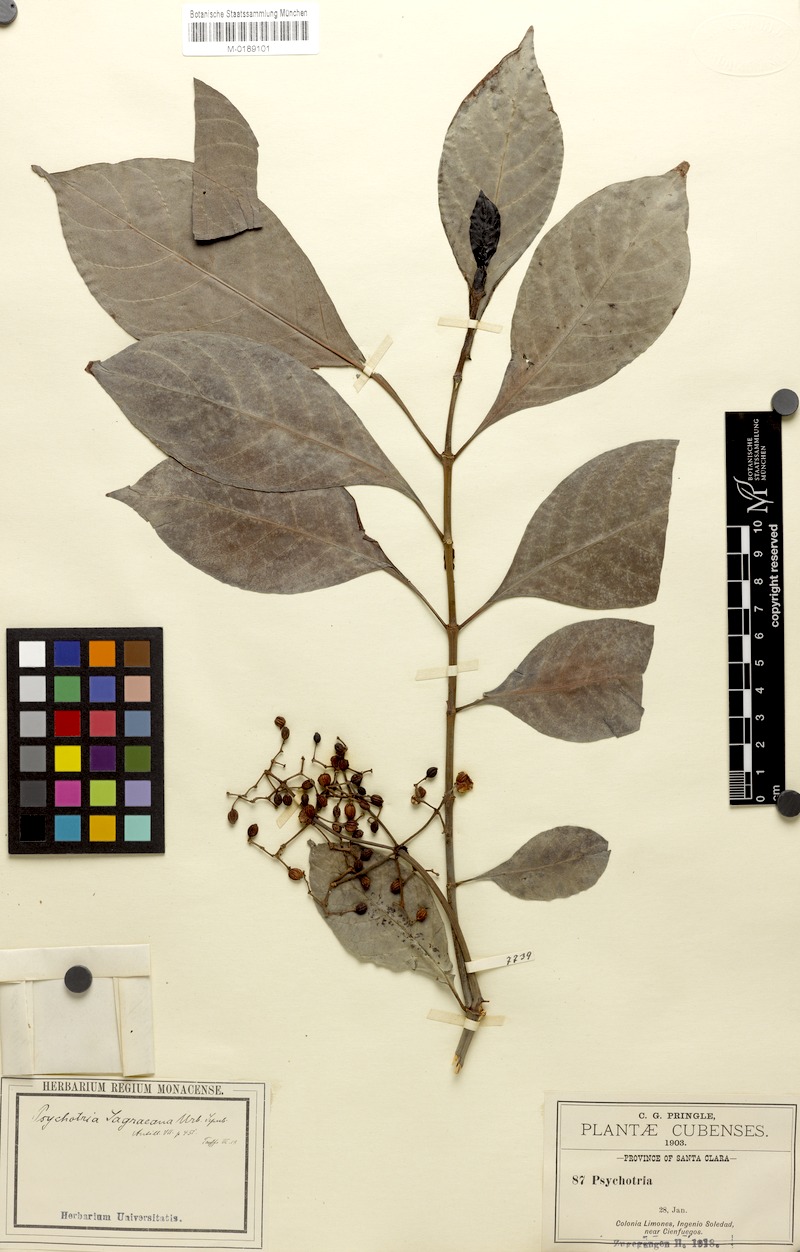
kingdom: Plantae
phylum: Tracheophyta
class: Magnoliopsida
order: Gentianales
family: Rubiaceae
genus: Psychotria
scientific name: Psychotria carthagenensis
